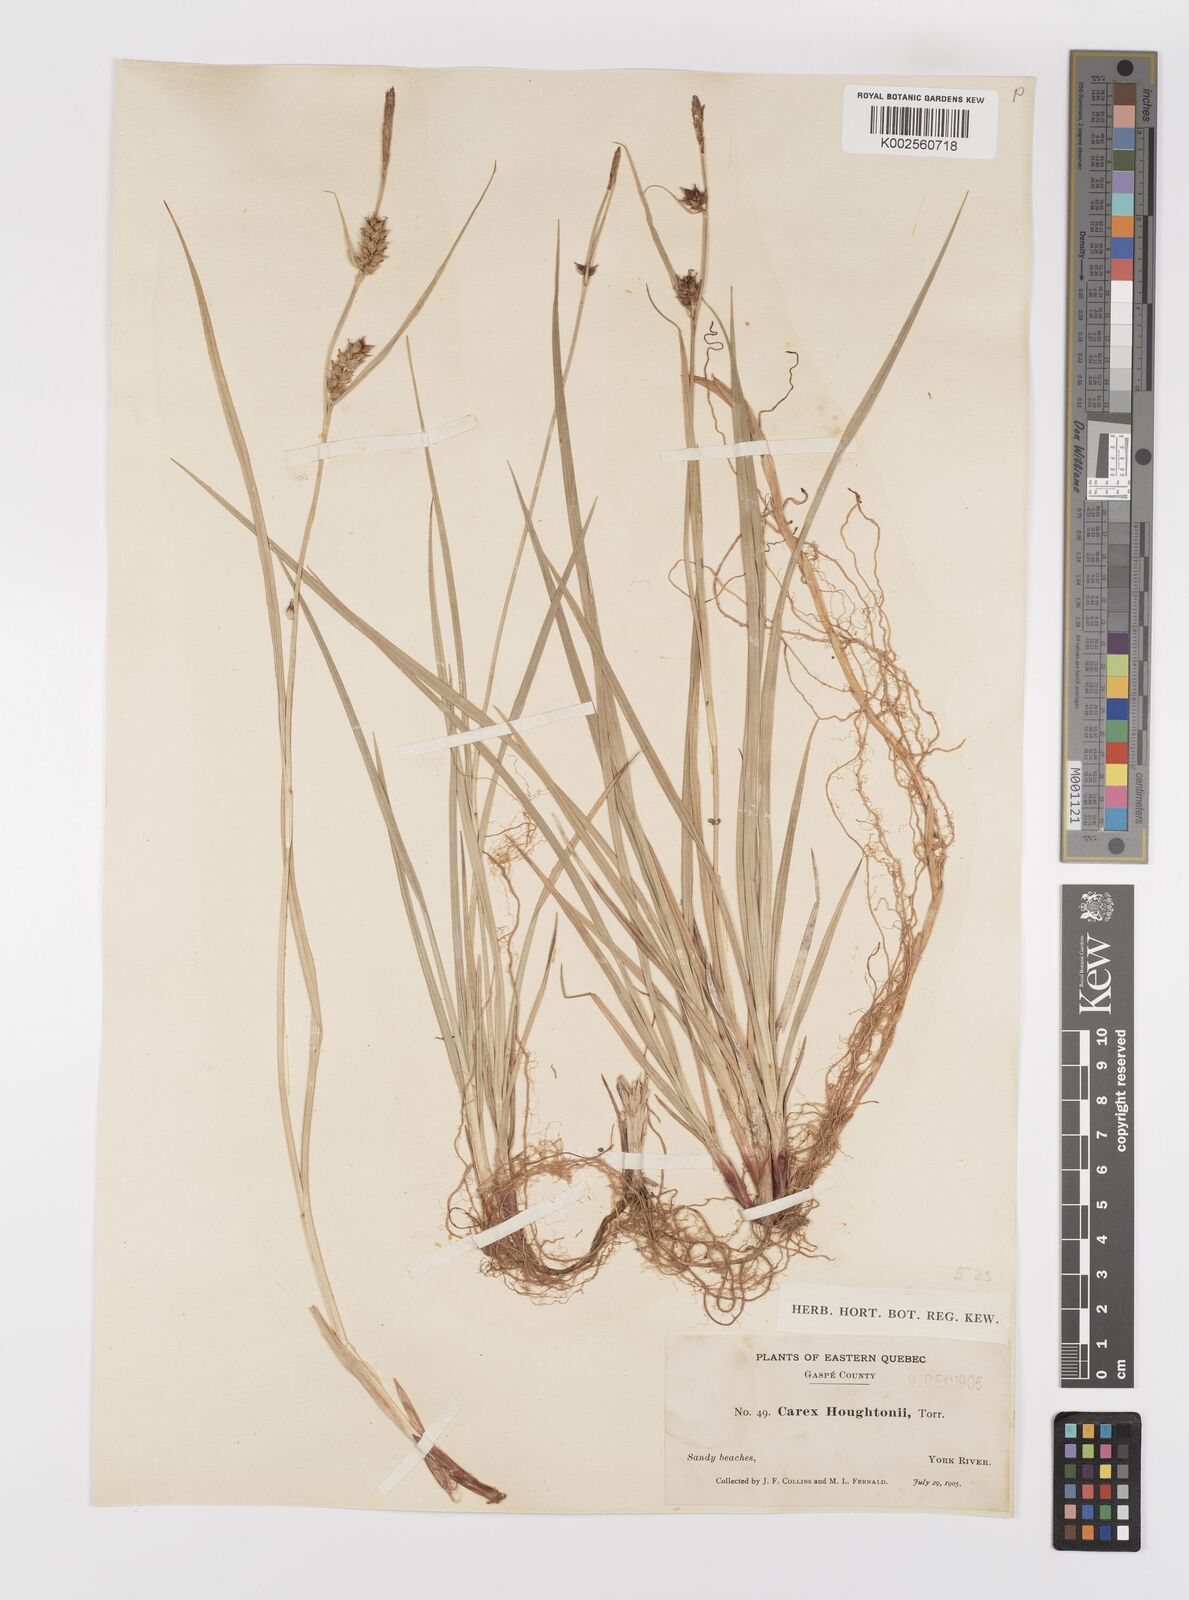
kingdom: Plantae
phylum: Tracheophyta
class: Liliopsida
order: Poales
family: Cyperaceae
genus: Carex
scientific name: Carex houghtoniana
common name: Houghton's sedge
